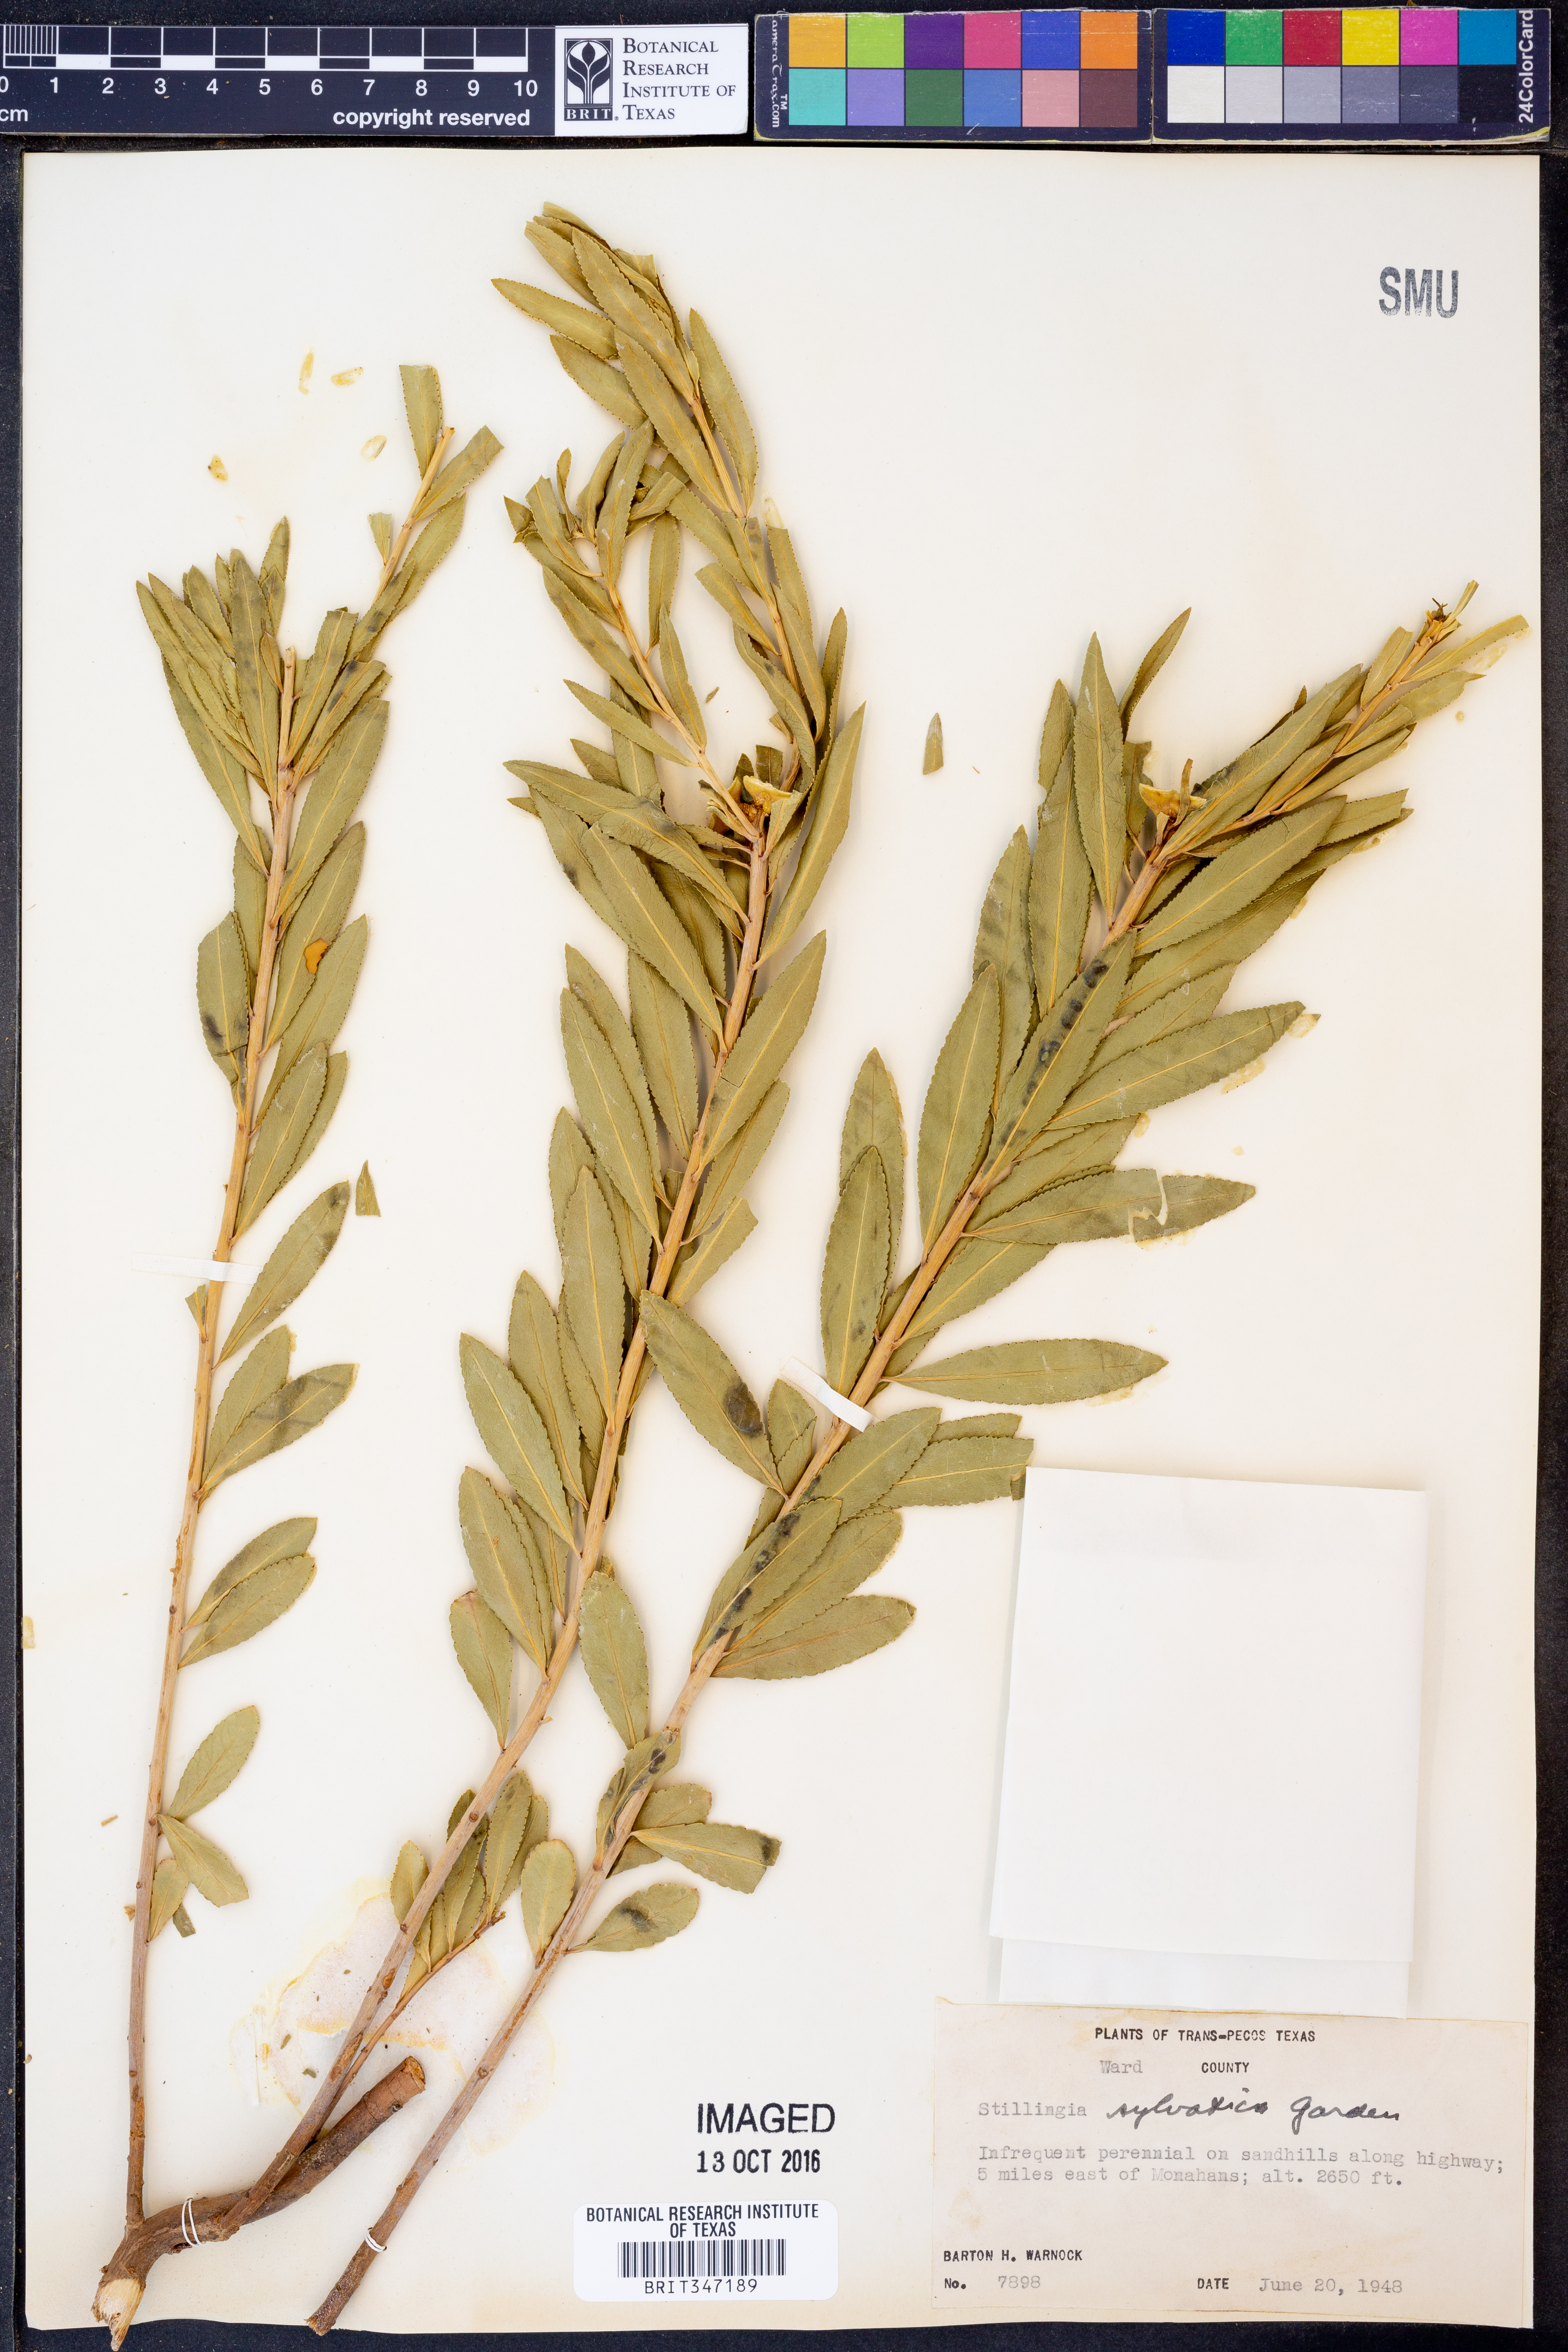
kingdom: Plantae
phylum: Tracheophyta
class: Magnoliopsida
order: Malpighiales
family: Euphorbiaceae
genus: Stillingia
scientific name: Stillingia sylvatica
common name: Queen's-delight
